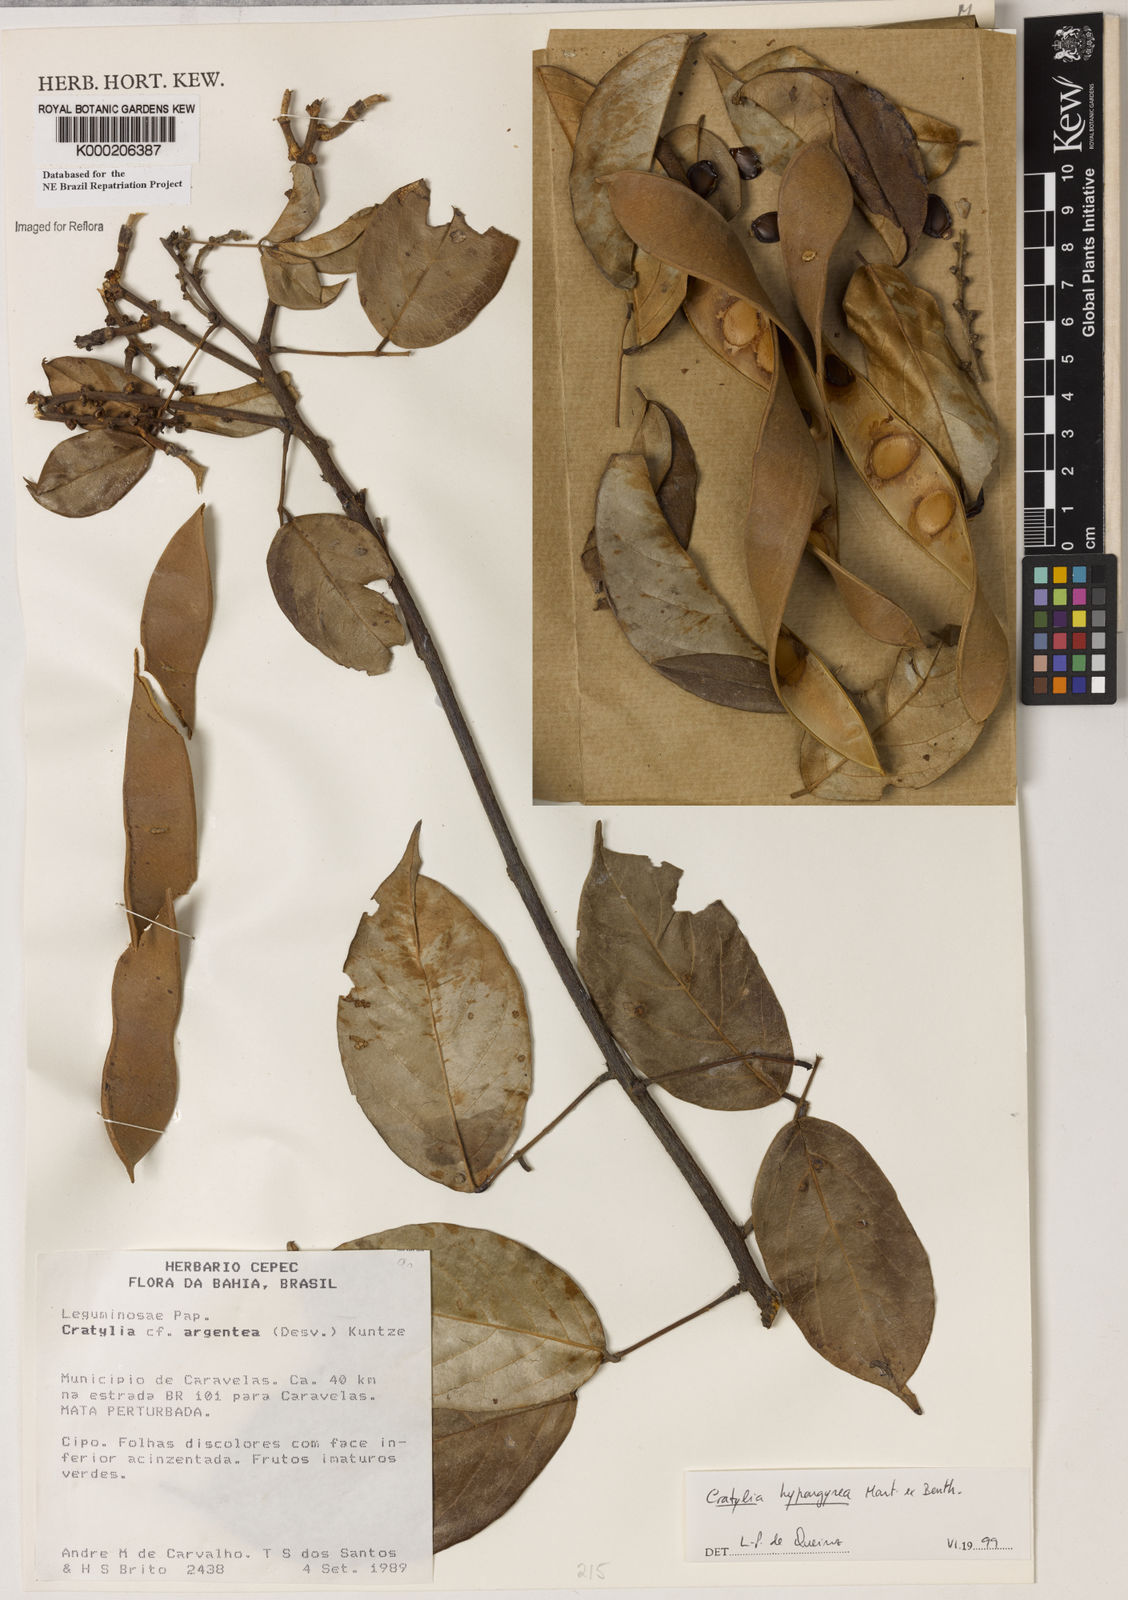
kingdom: Plantae
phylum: Tracheophyta
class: Magnoliopsida
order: Fabales
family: Fabaceae
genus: Cratylia
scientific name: Cratylia
